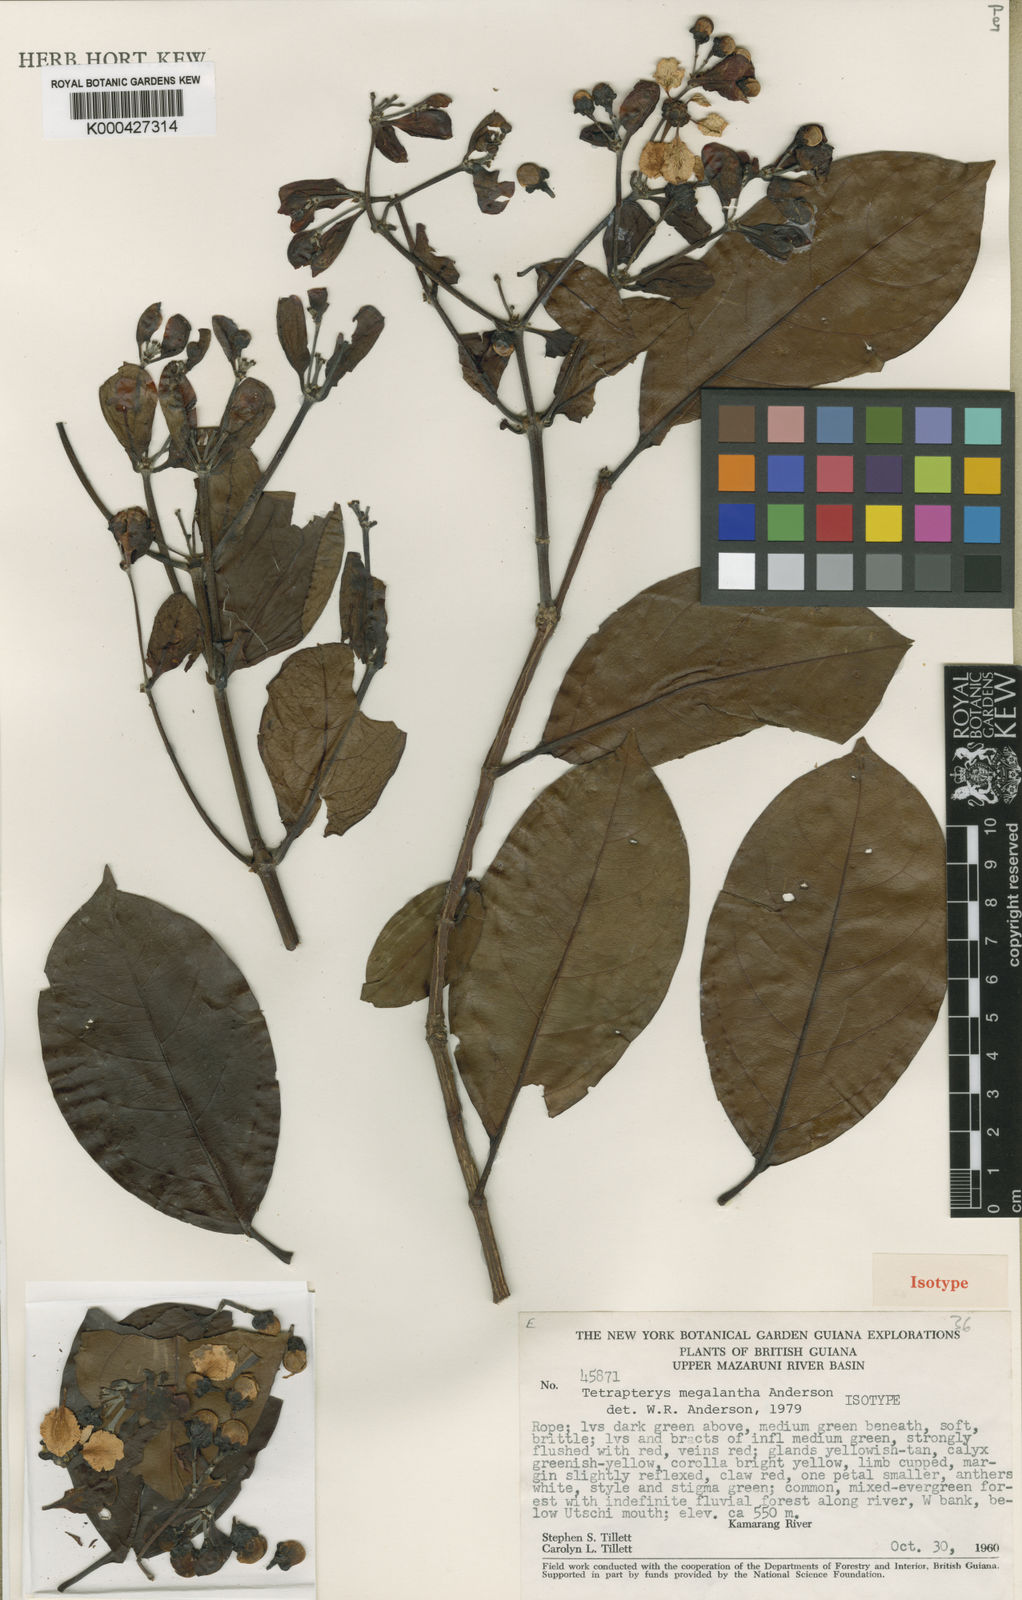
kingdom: Plantae
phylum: Tracheophyta
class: Magnoliopsida
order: Malpighiales
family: Malpighiaceae
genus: Tetrapterys
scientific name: Tetrapterys megalantha
